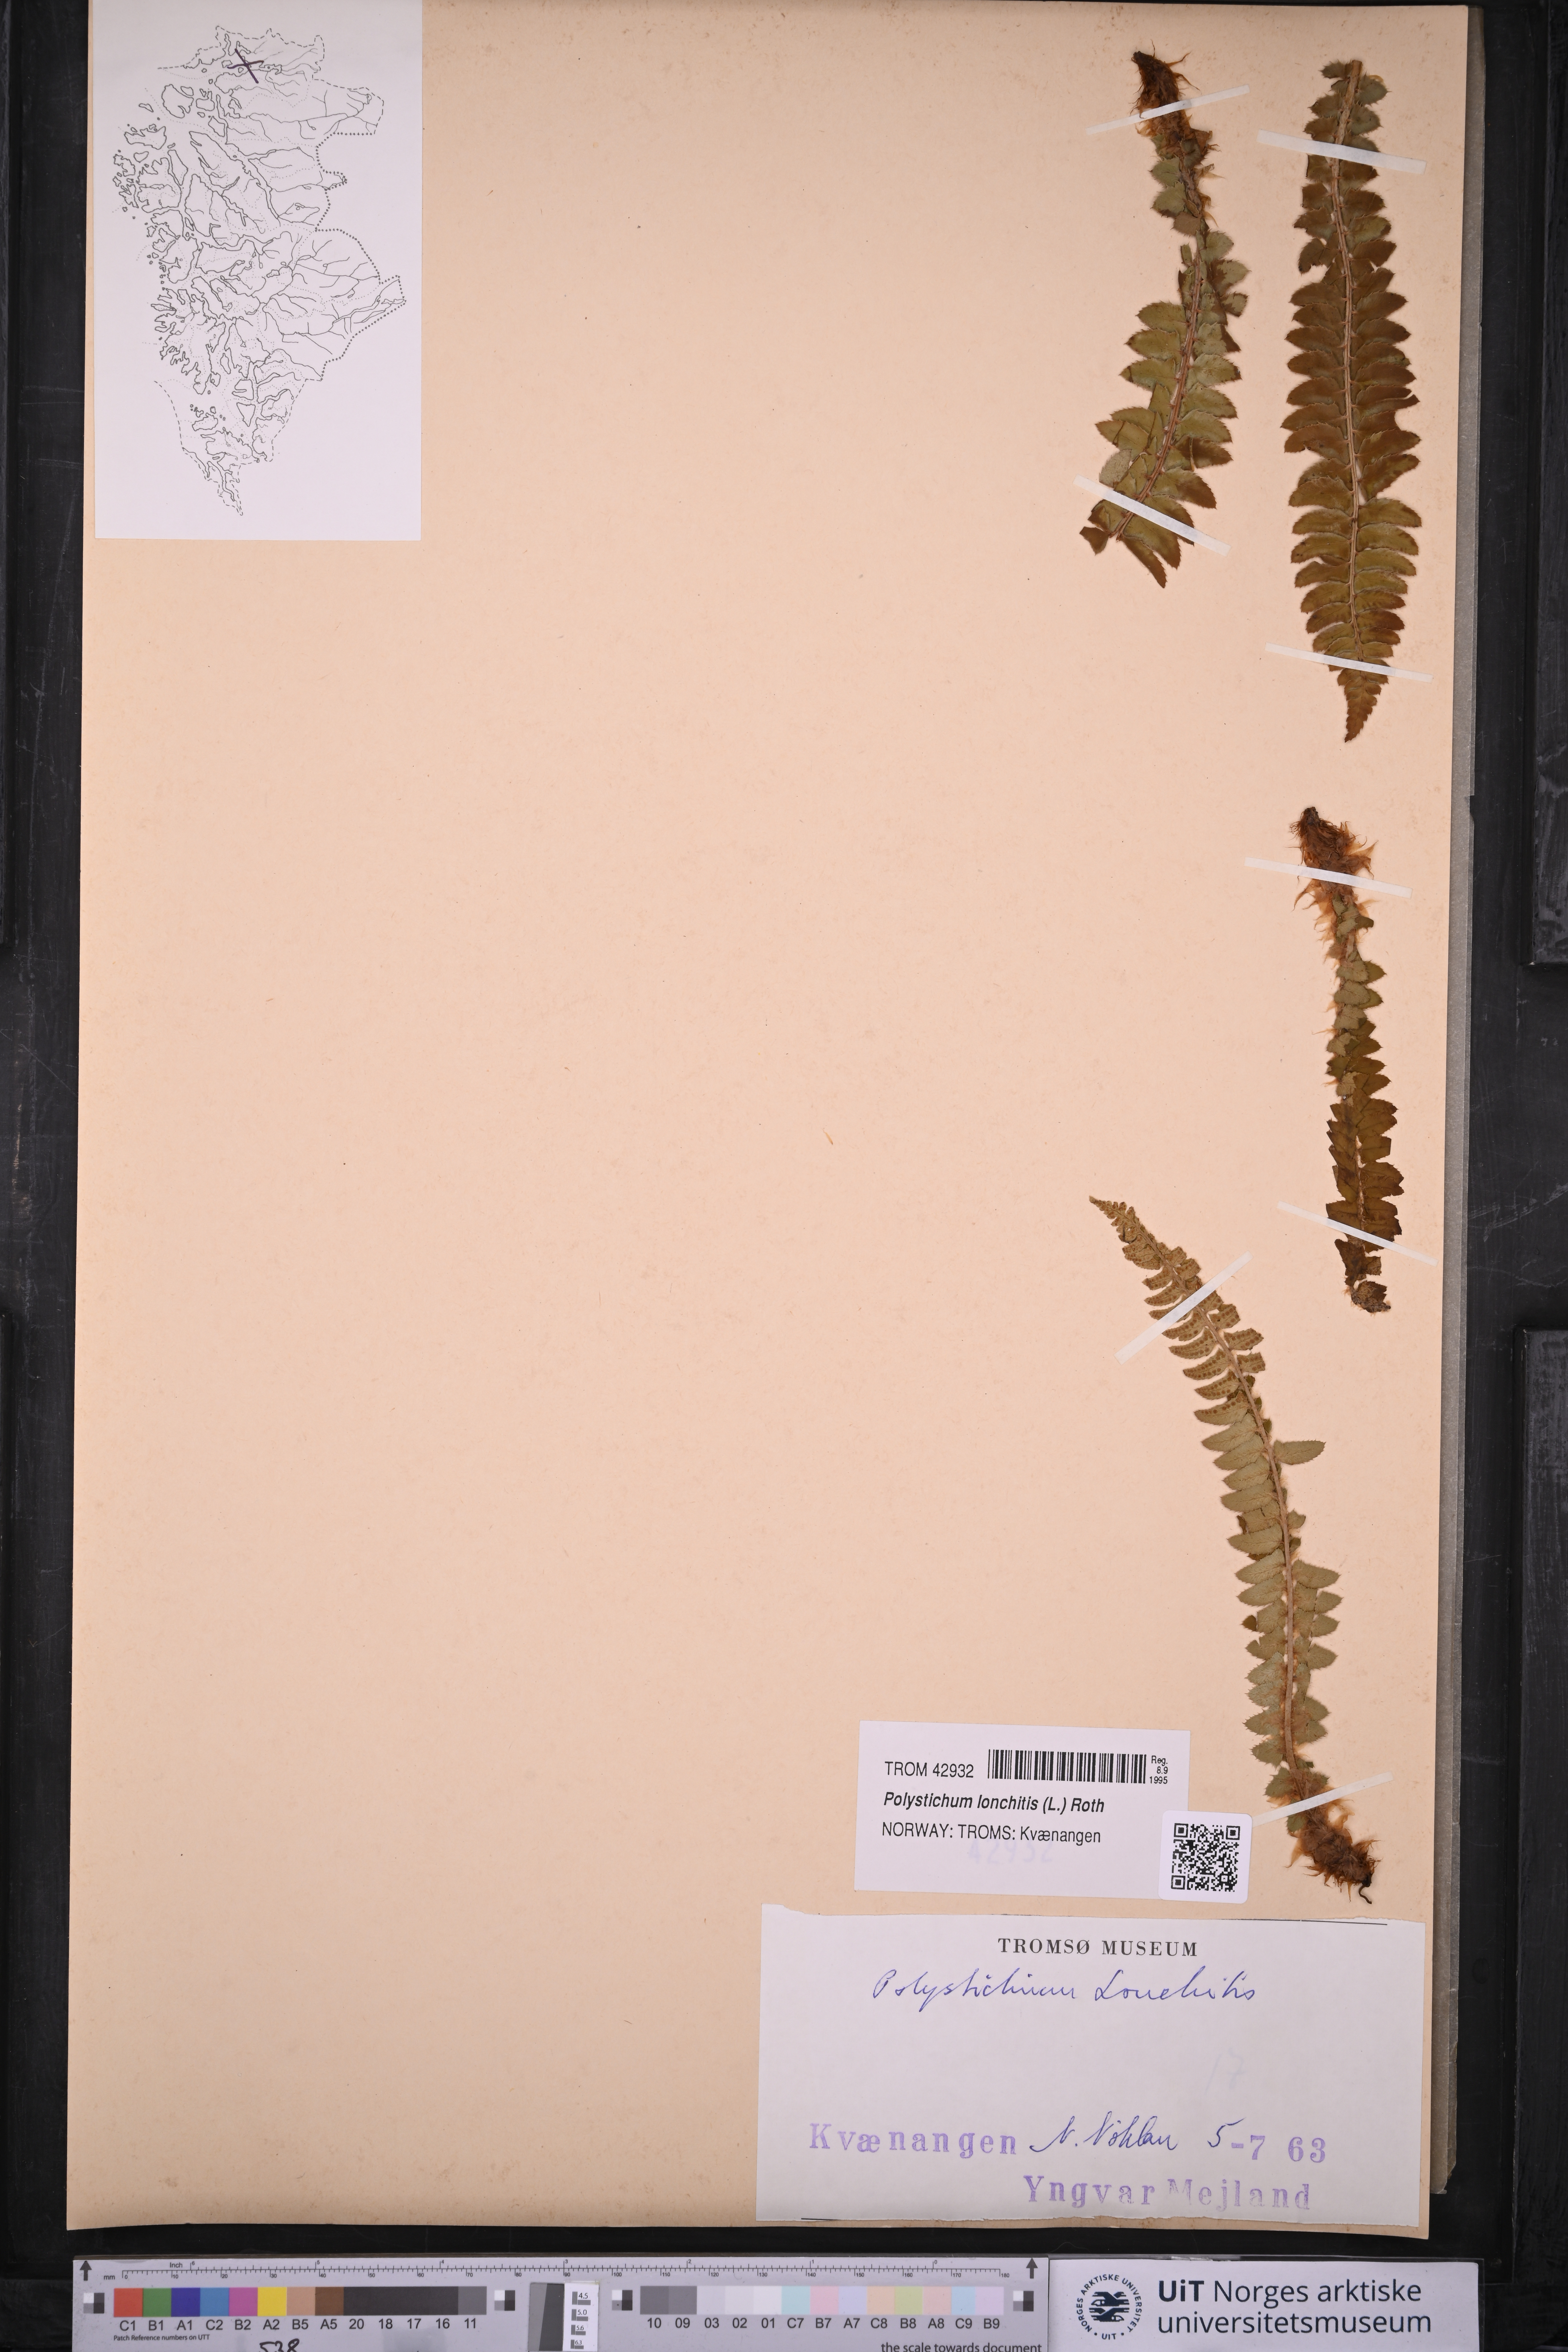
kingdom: Plantae
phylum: Tracheophyta
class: Polypodiopsida
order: Polypodiales
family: Dryopteridaceae
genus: Polystichum
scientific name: Polystichum lonchitis
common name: Holly fern
